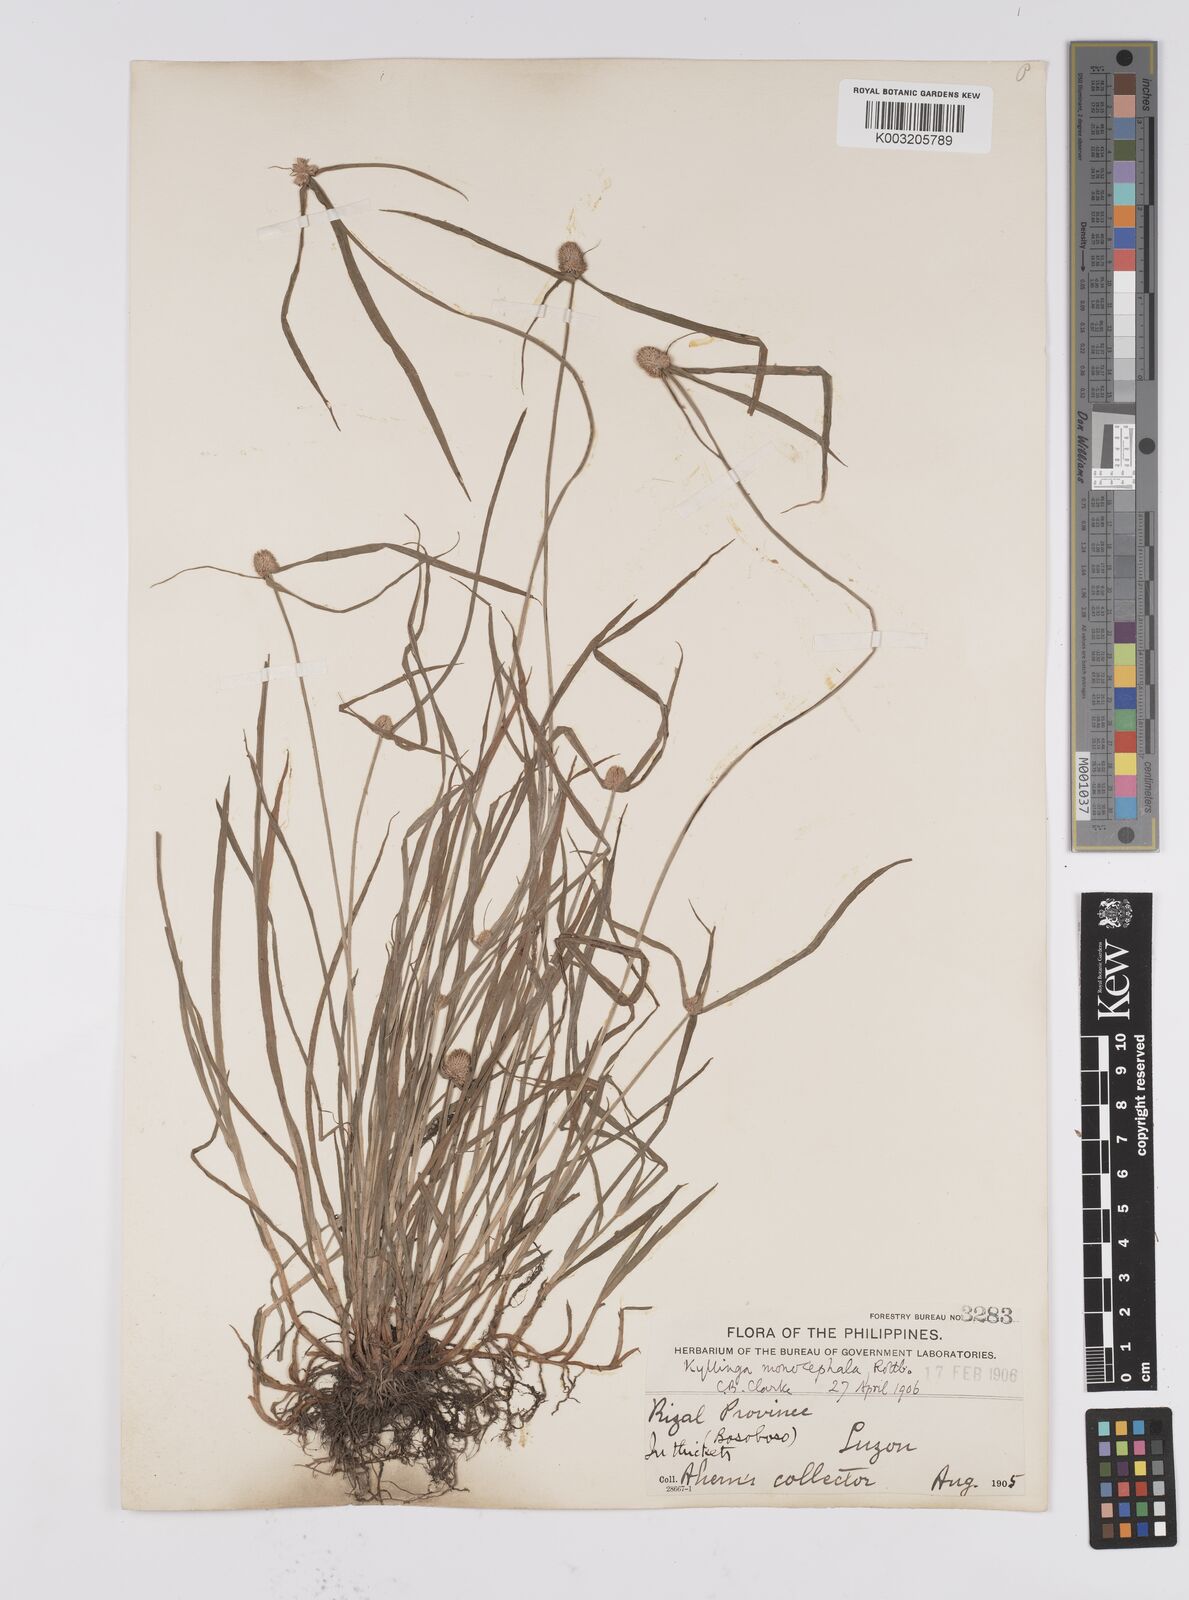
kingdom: Plantae
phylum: Tracheophyta
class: Liliopsida
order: Poales
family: Cyperaceae
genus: Cyperus
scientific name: Cyperus nemoralis
